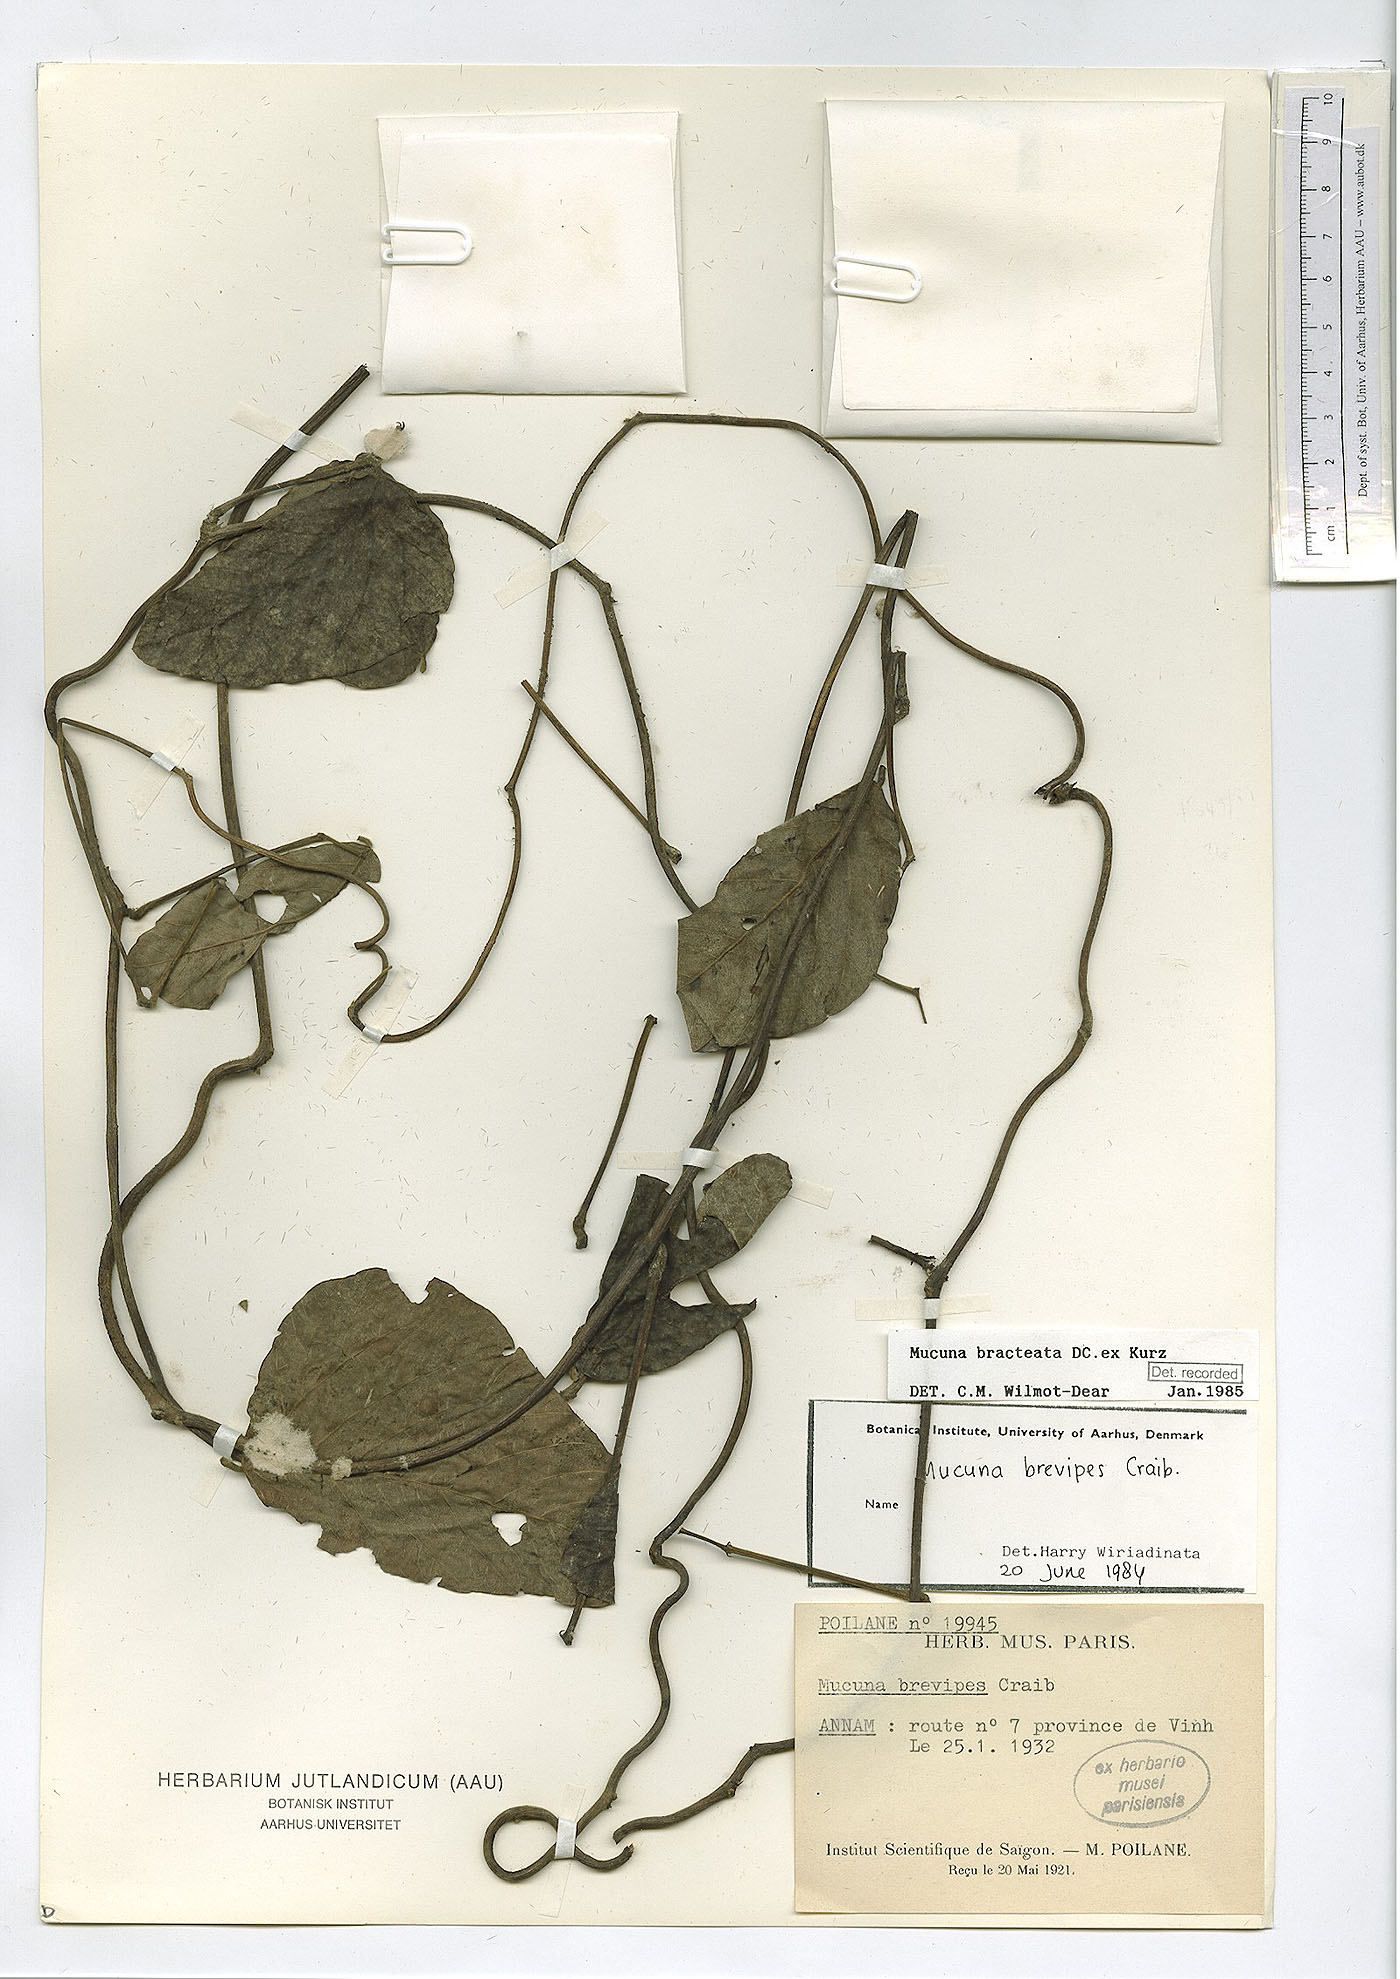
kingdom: Plantae
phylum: Tracheophyta
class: Magnoliopsida
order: Fabales
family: Fabaceae
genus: Mucuna
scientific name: Mucuna bracteata
